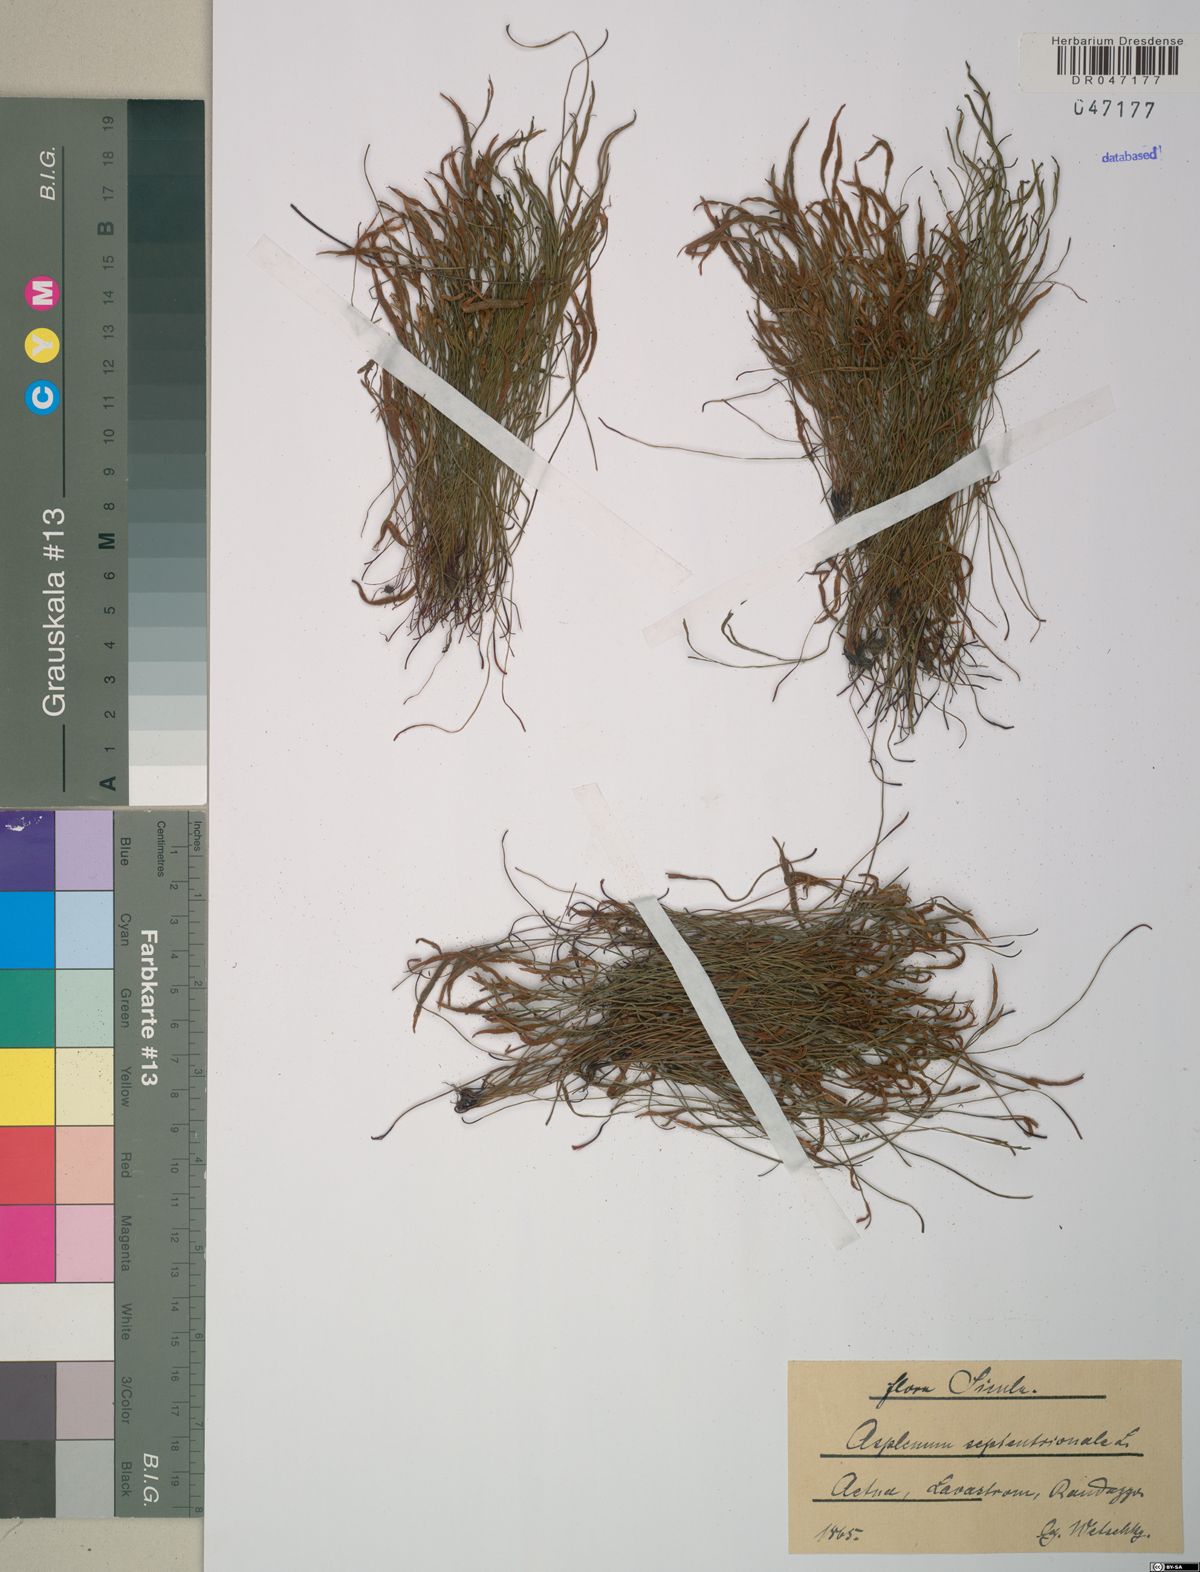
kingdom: Plantae
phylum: Tracheophyta
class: Polypodiopsida
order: Polypodiales
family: Aspleniaceae
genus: Asplenium
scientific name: Asplenium septentrionale
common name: Forked spleenwort
